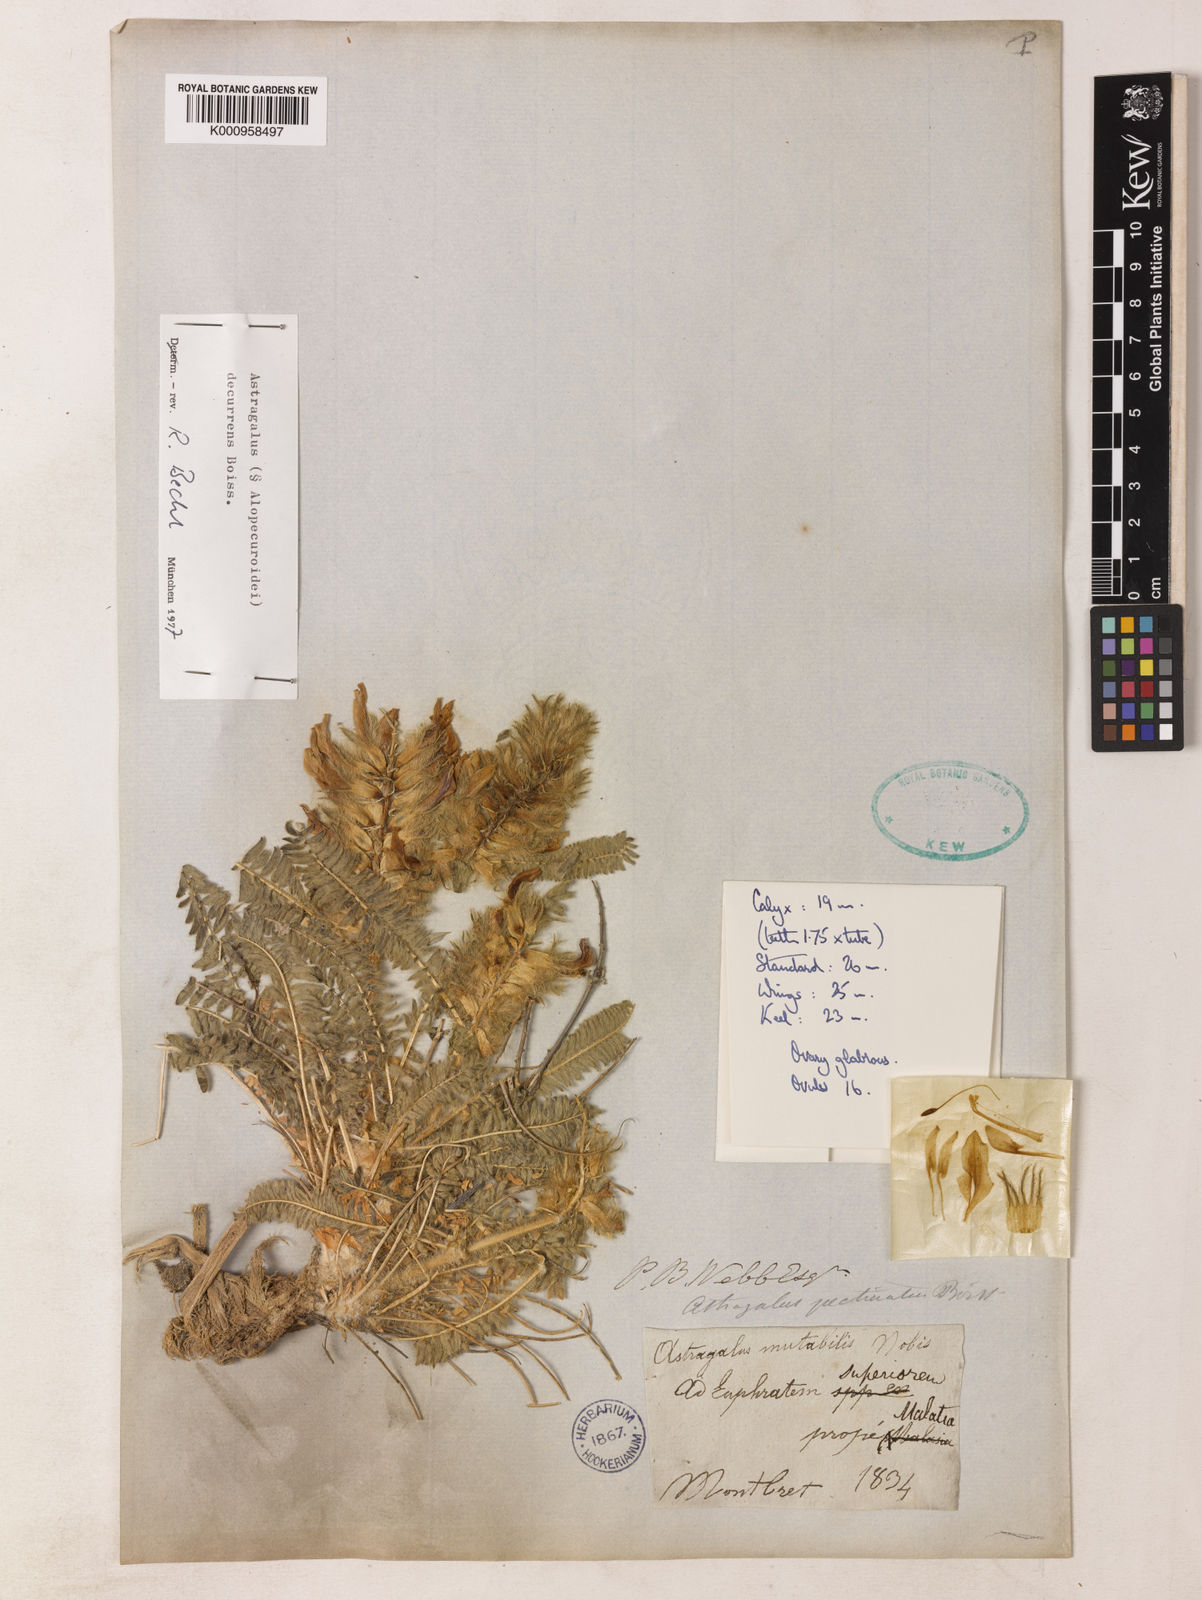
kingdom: Plantae
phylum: Tracheophyta
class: Magnoliopsida
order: Fabales
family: Fabaceae
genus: Astragalus
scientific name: Astragalus
